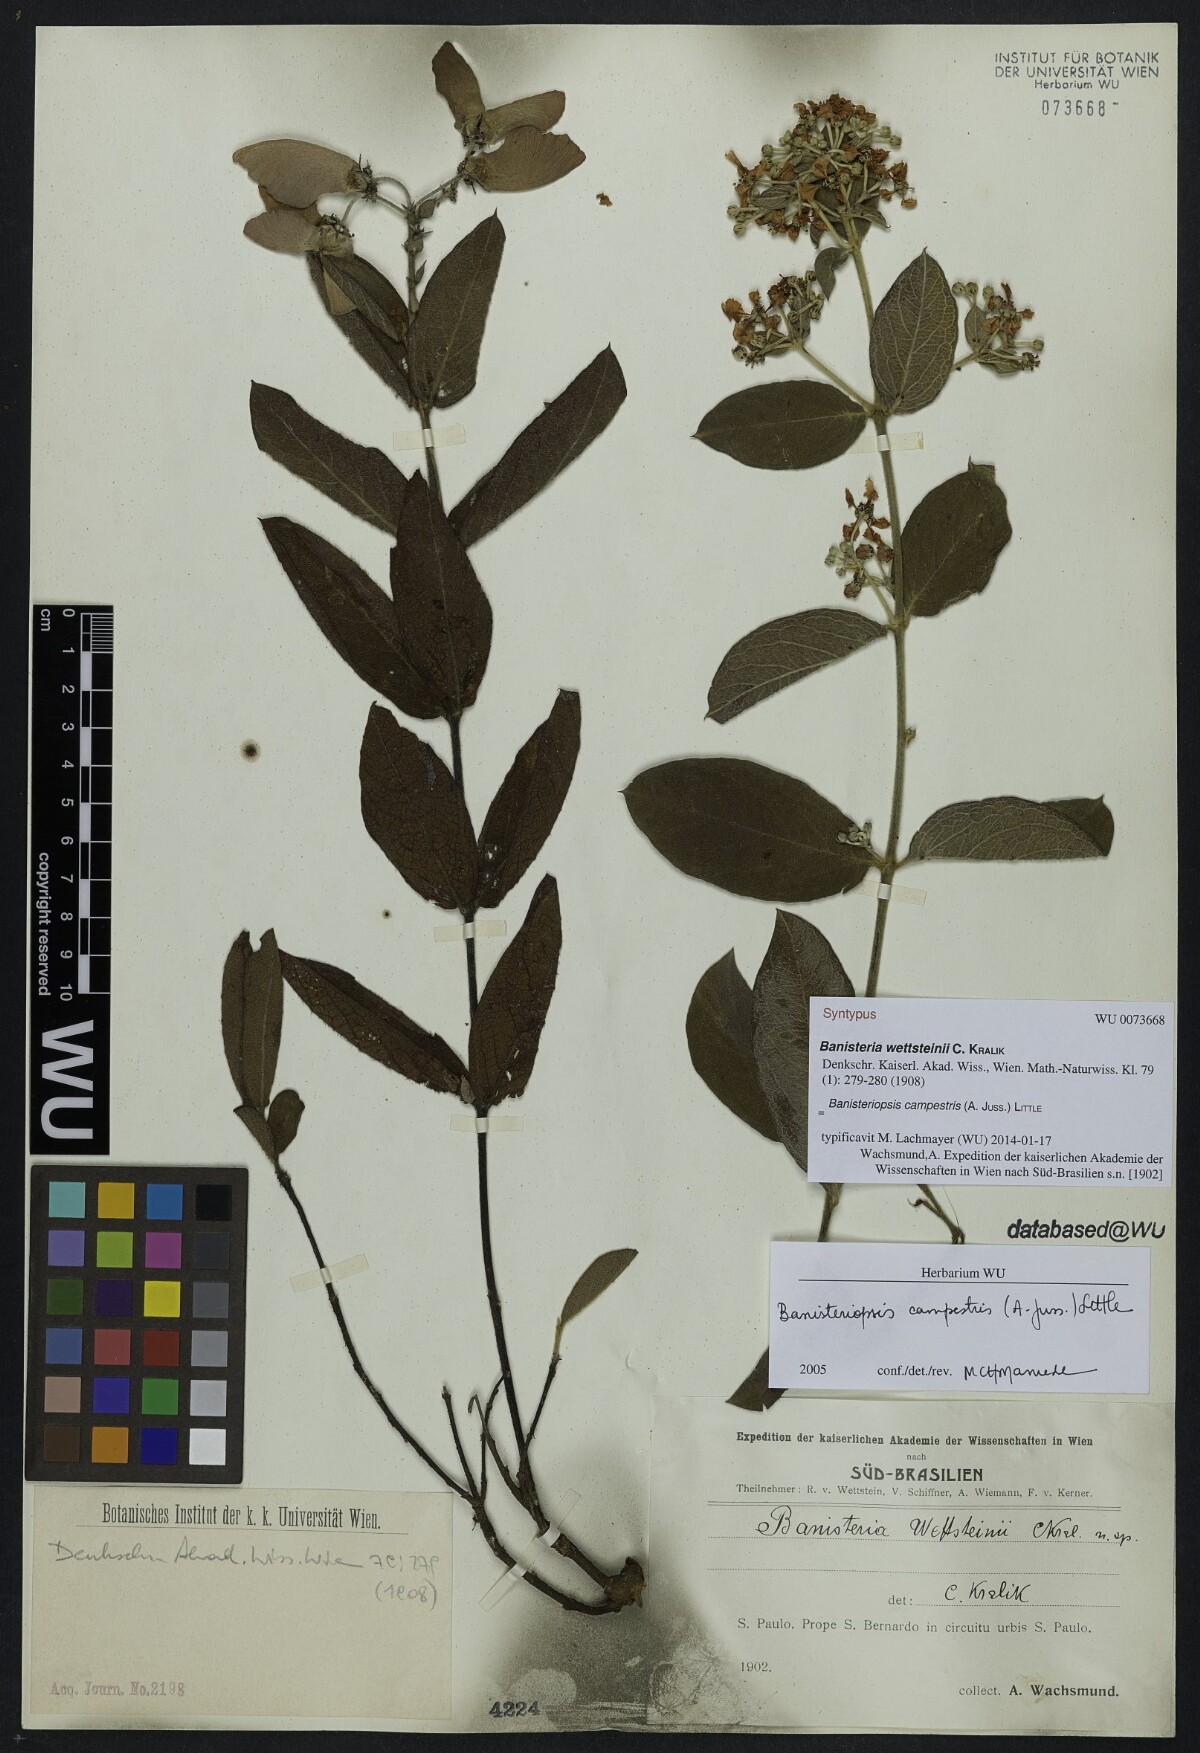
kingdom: Plantae
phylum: Tracheophyta
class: Magnoliopsida
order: Malpighiales
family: Malpighiaceae
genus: Banisteriopsis
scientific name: Banisteriopsis campestris
